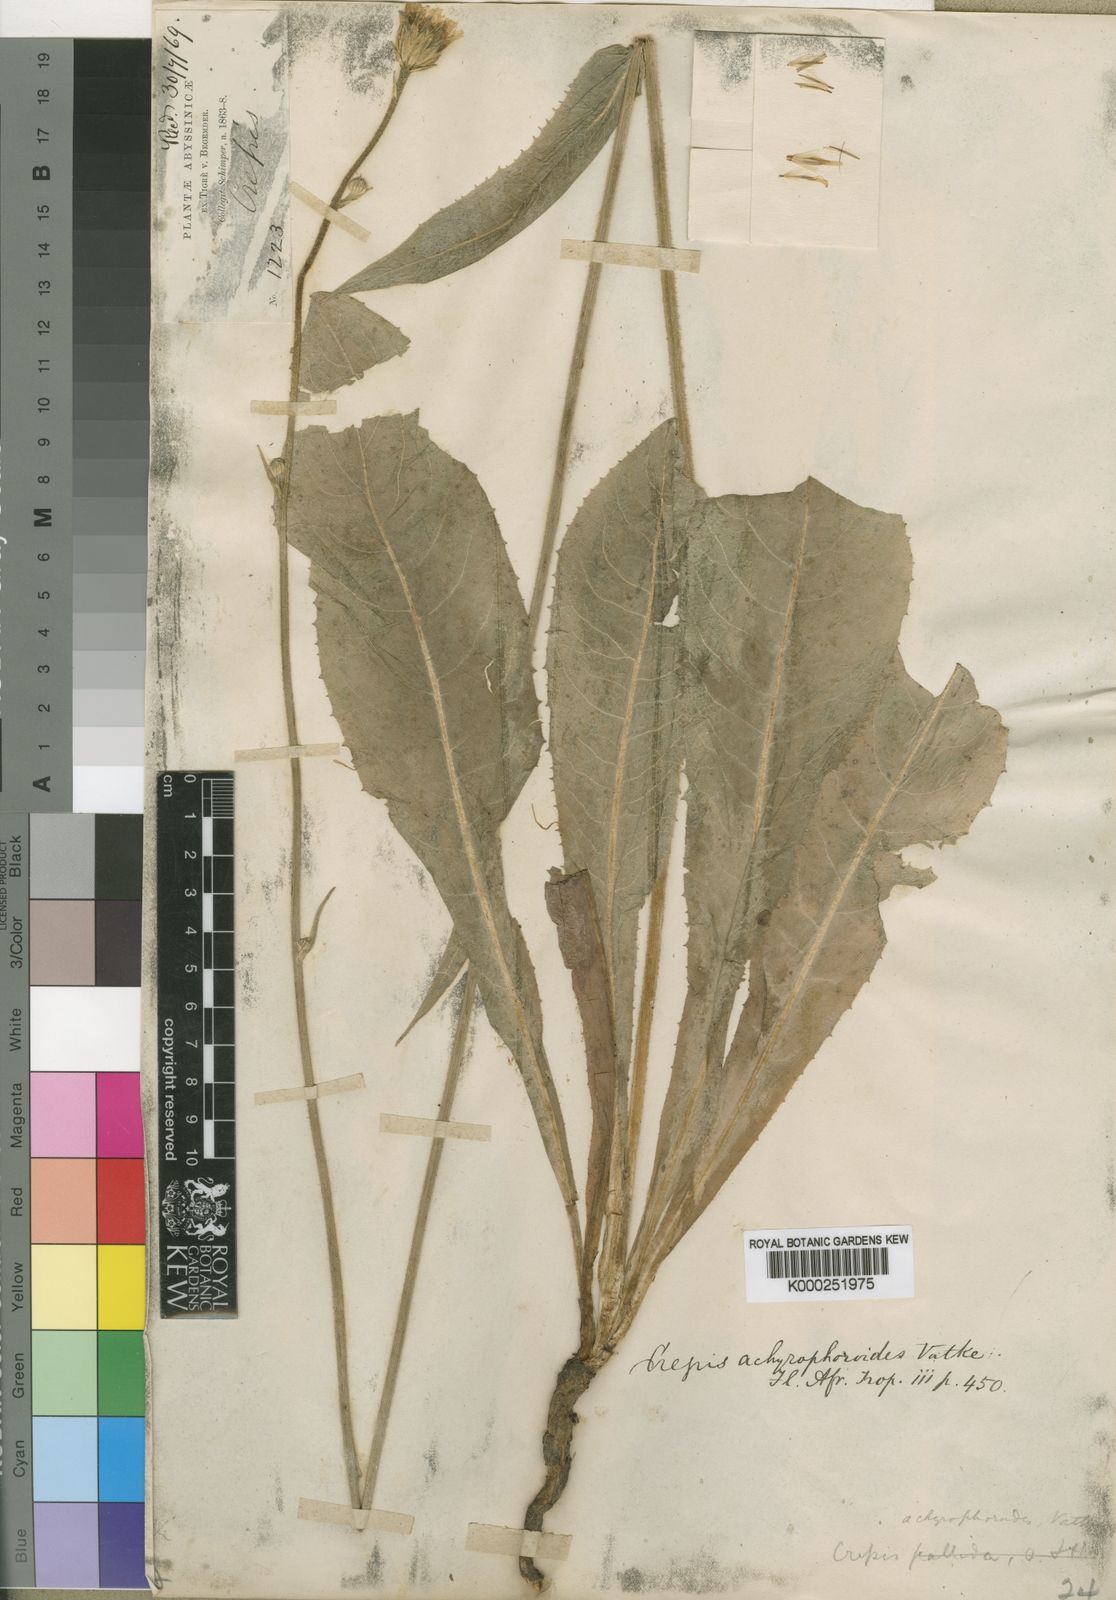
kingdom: Plantae
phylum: Tracheophyta
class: Magnoliopsida
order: Asterales
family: Asteraceae
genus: Crepis
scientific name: Crepis achyrophoroides
